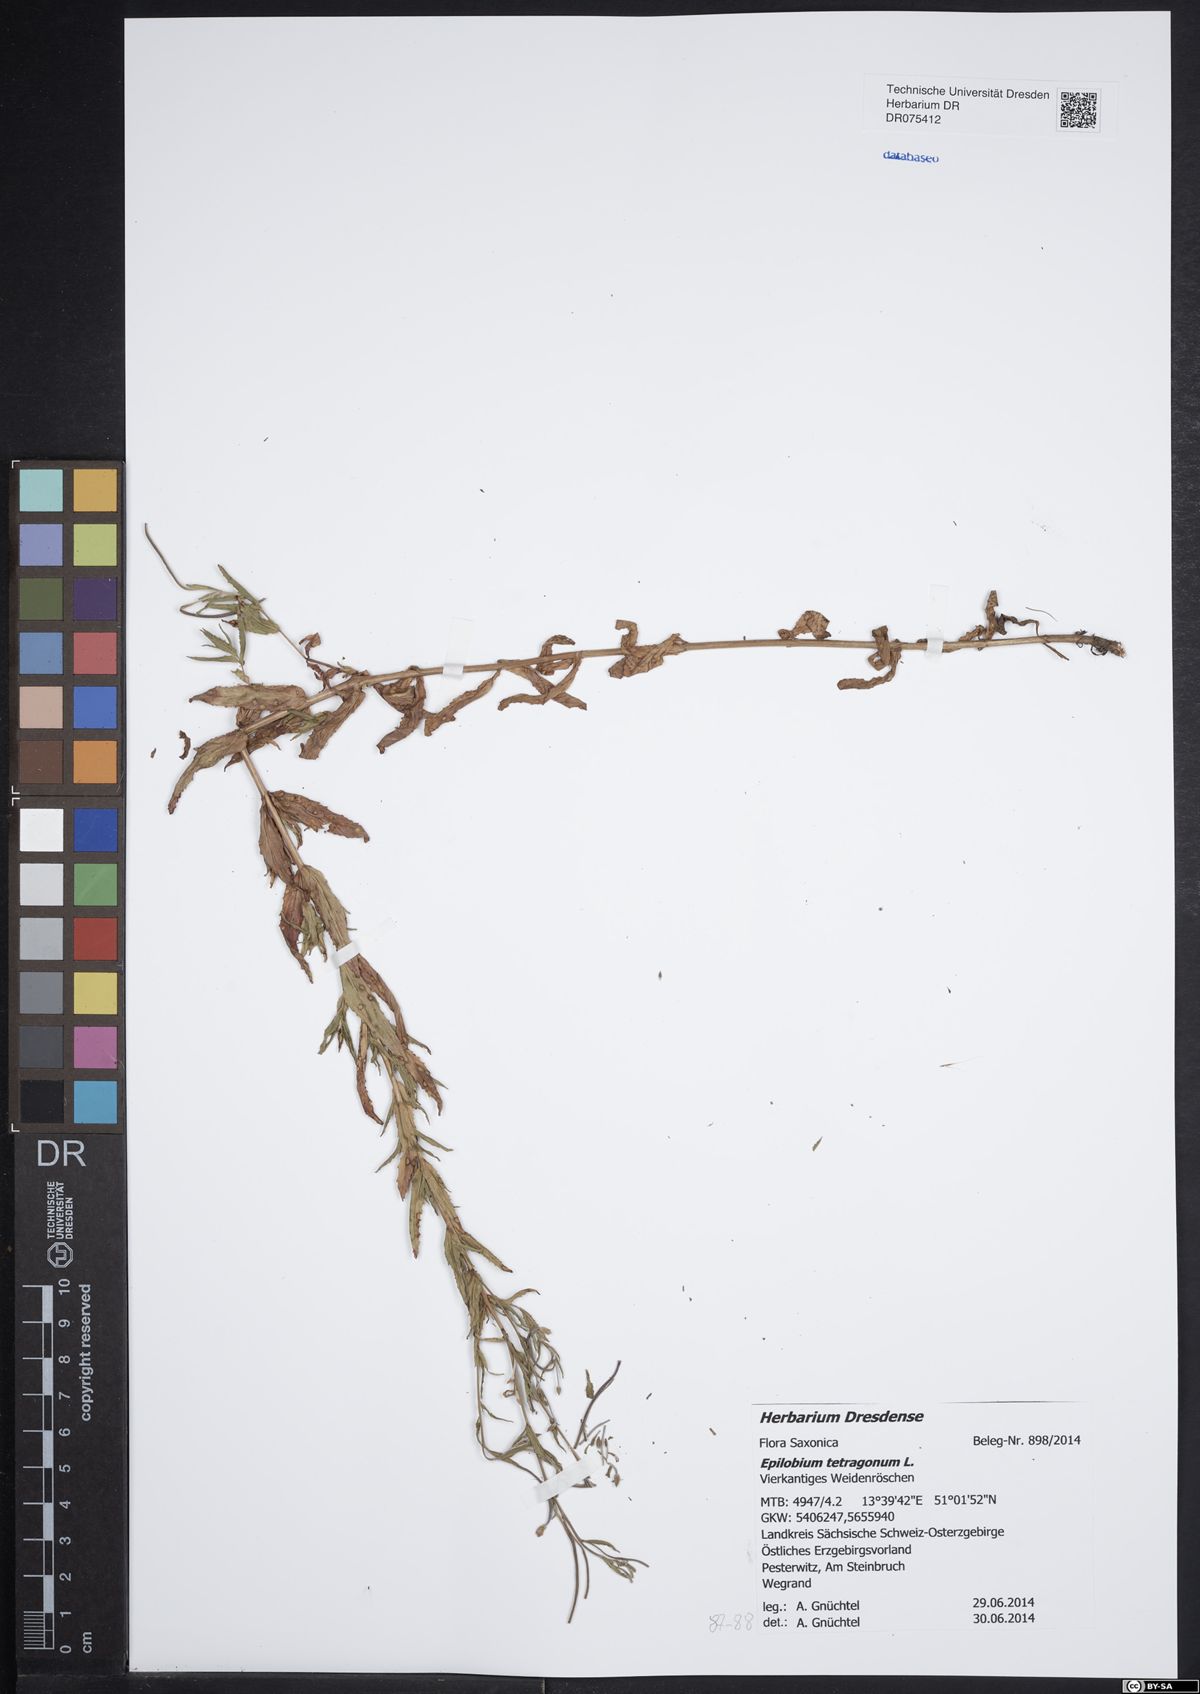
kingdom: Plantae
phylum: Tracheophyta
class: Magnoliopsida
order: Myrtales
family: Onagraceae
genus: Epilobium
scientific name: Epilobium tetragonum
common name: Square-stemmed willowherb
